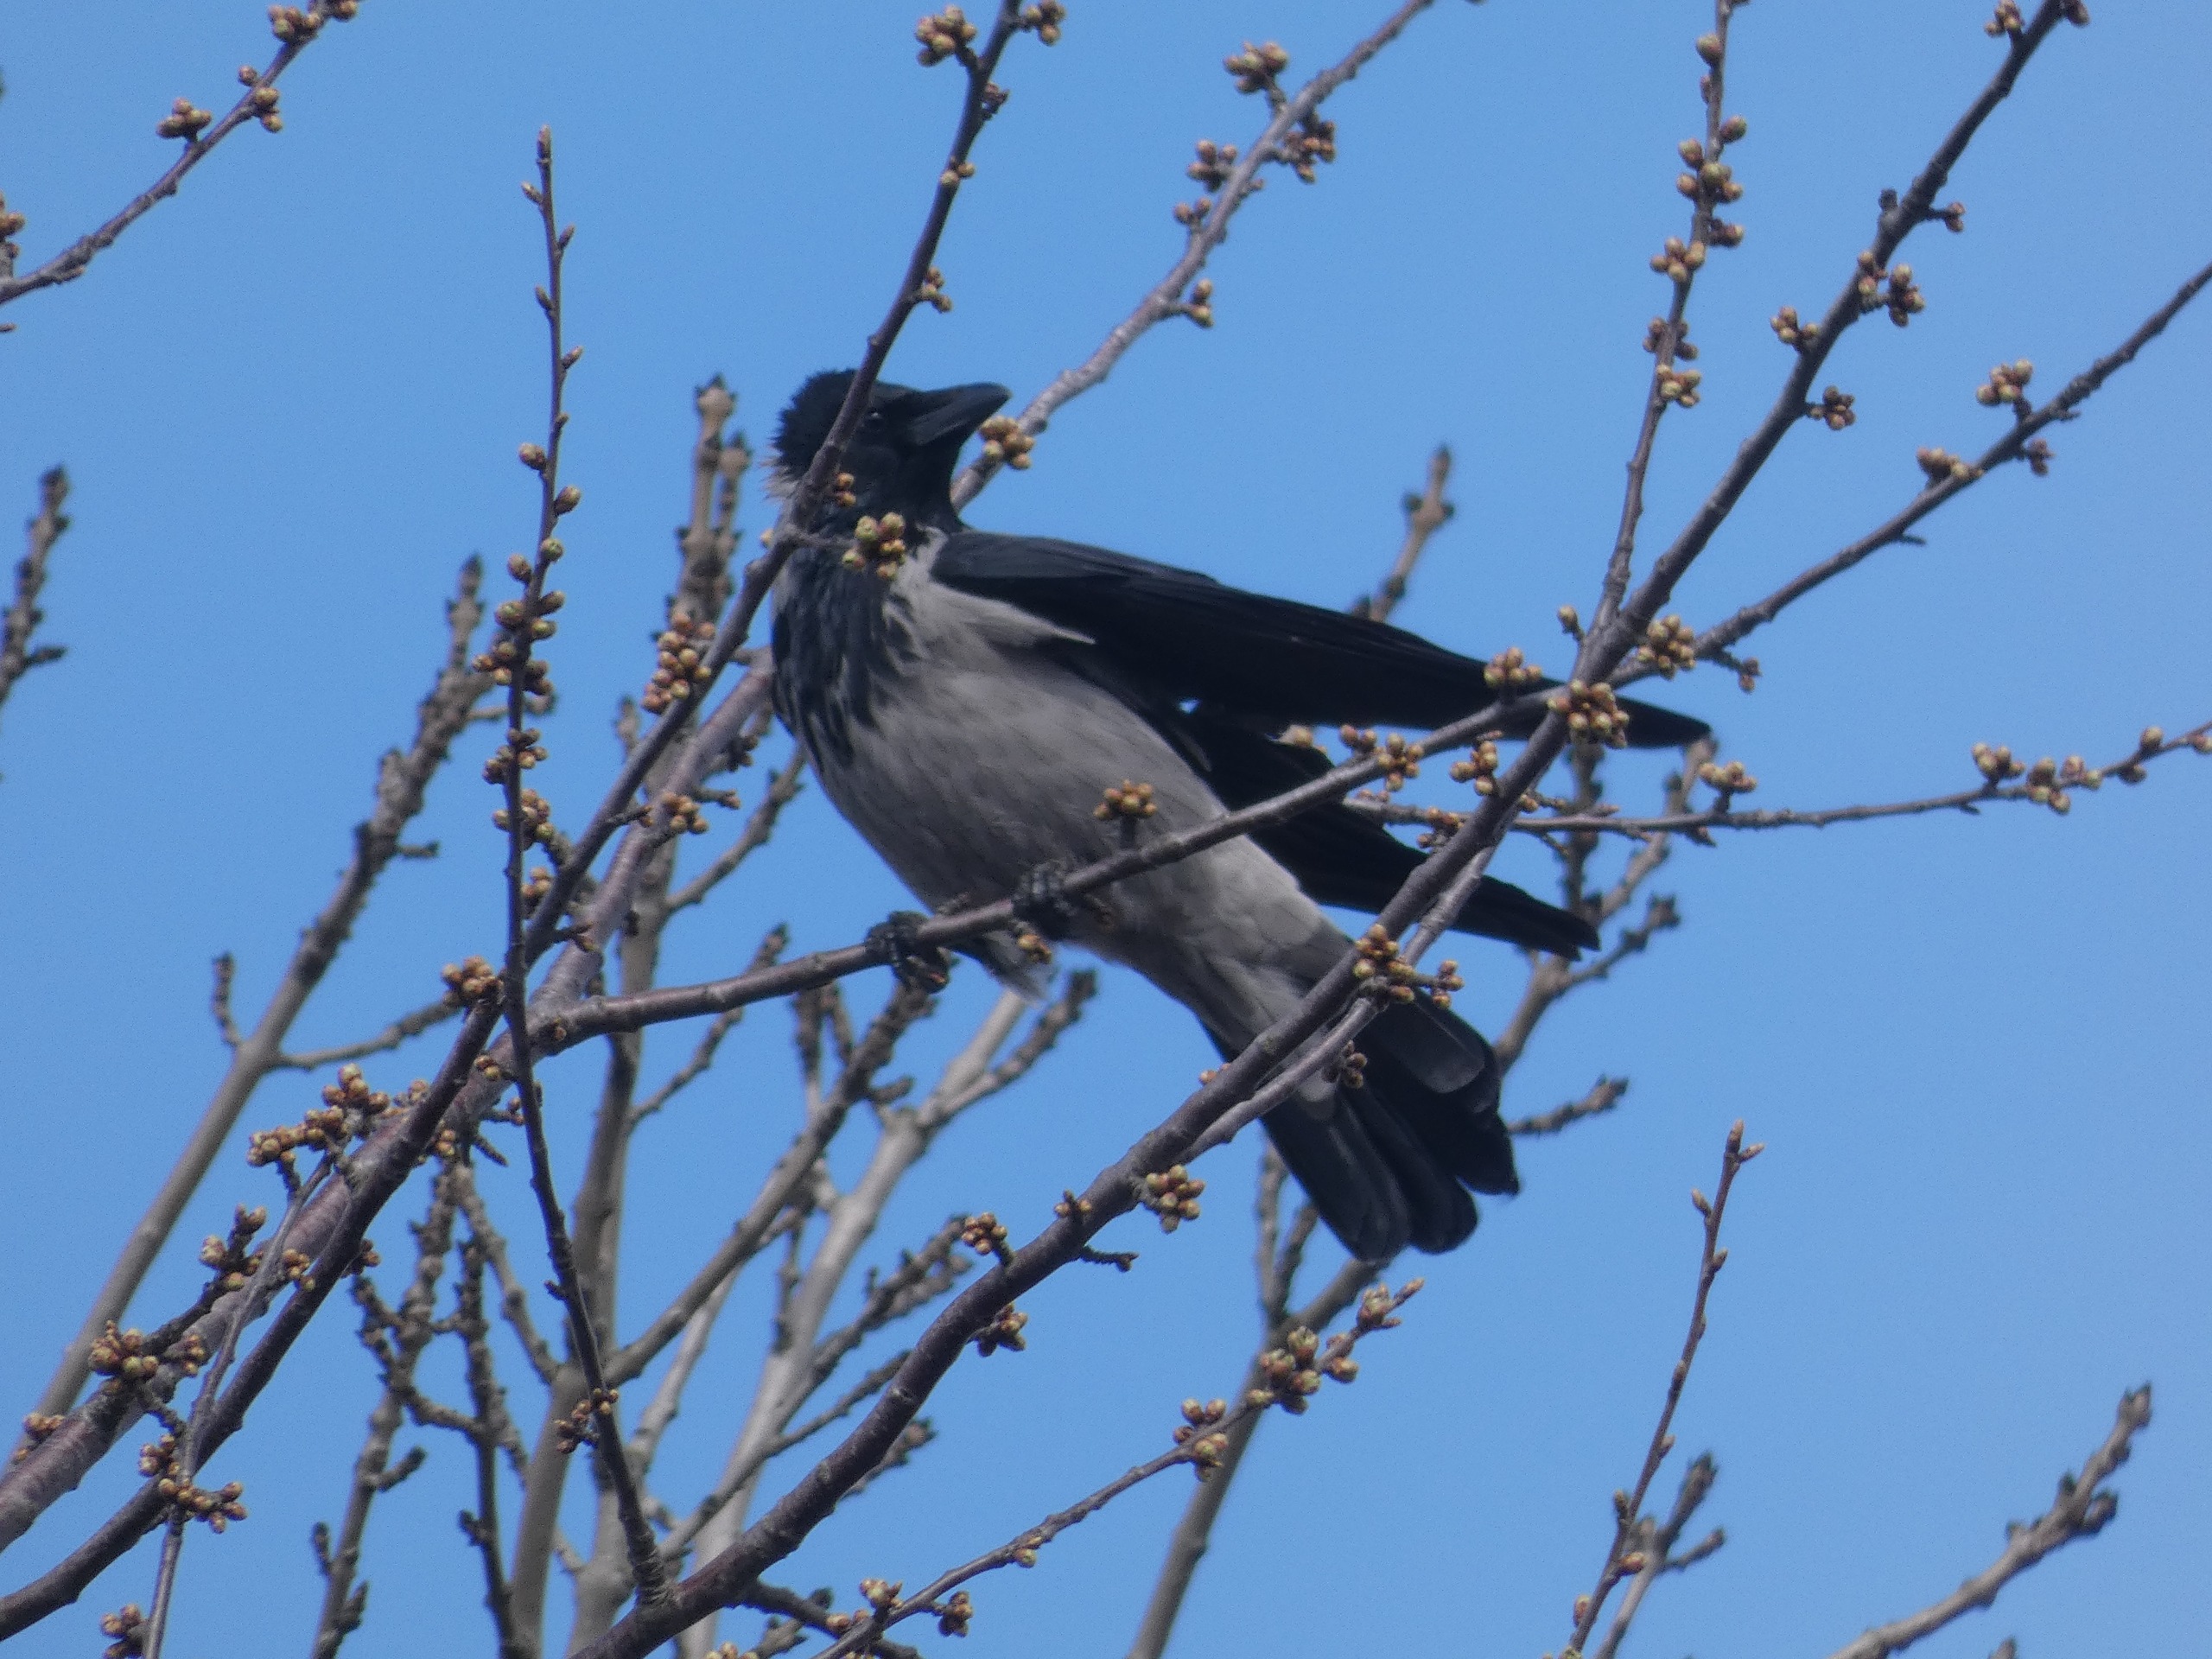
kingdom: Animalia
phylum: Chordata
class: Aves
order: Passeriformes
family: Corvidae
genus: Corvus
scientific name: Corvus cornix
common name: Gråkrage
